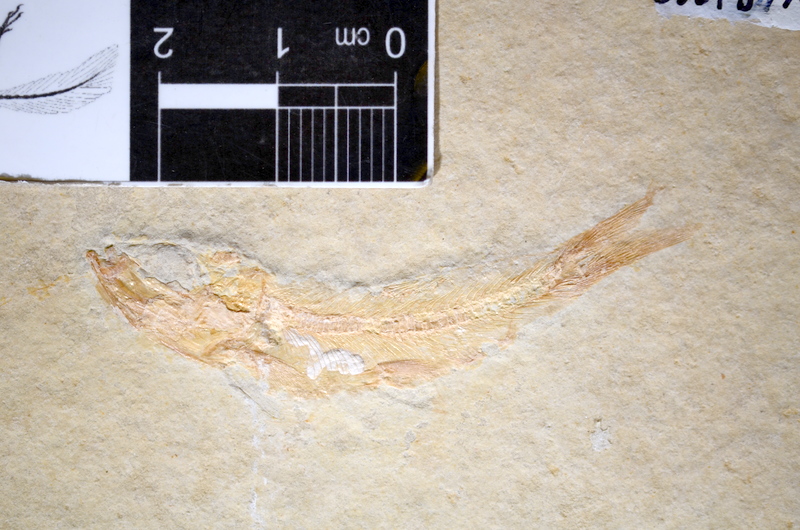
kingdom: Animalia
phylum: Chordata
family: Ascalaboidae
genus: Tharsis
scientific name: Tharsis dubius
